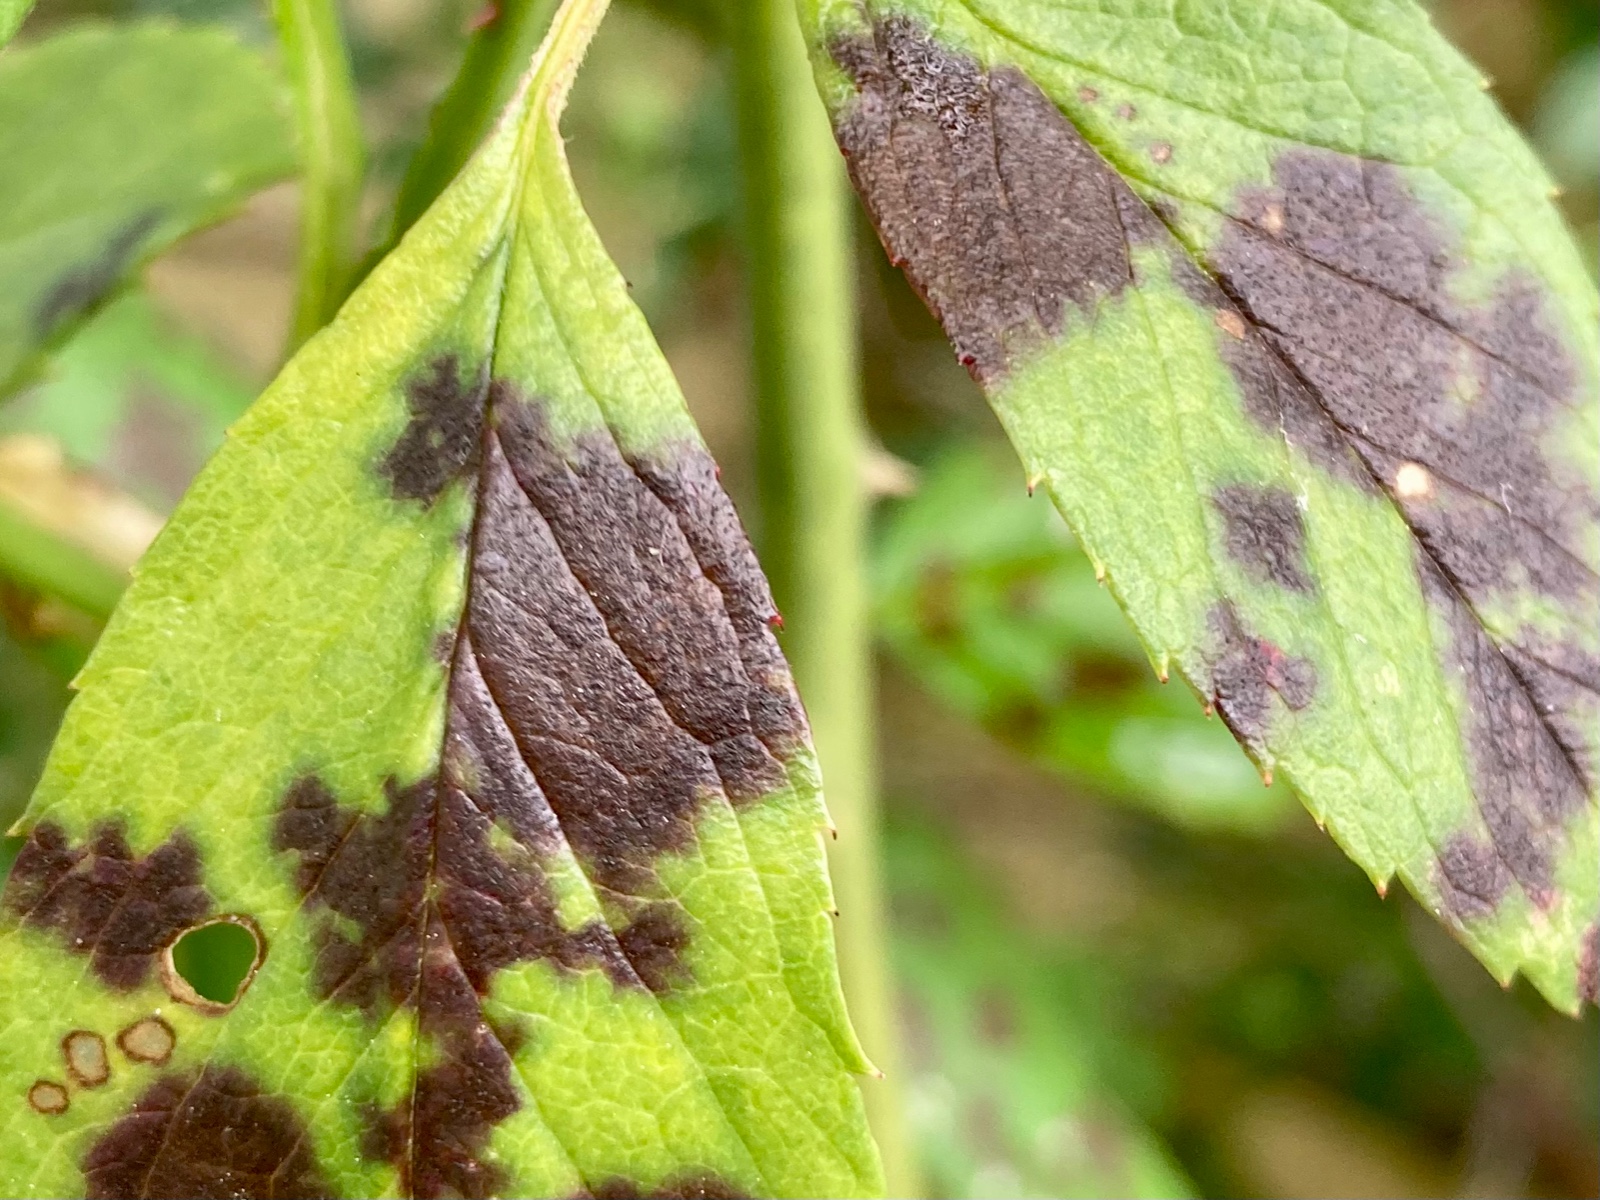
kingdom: Fungi
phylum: Ascomycota
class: Leotiomycetes
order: Helotiales
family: Drepanopezizaceae
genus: Diplocarpon
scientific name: Diplocarpon rosae
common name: Rose black-spot
